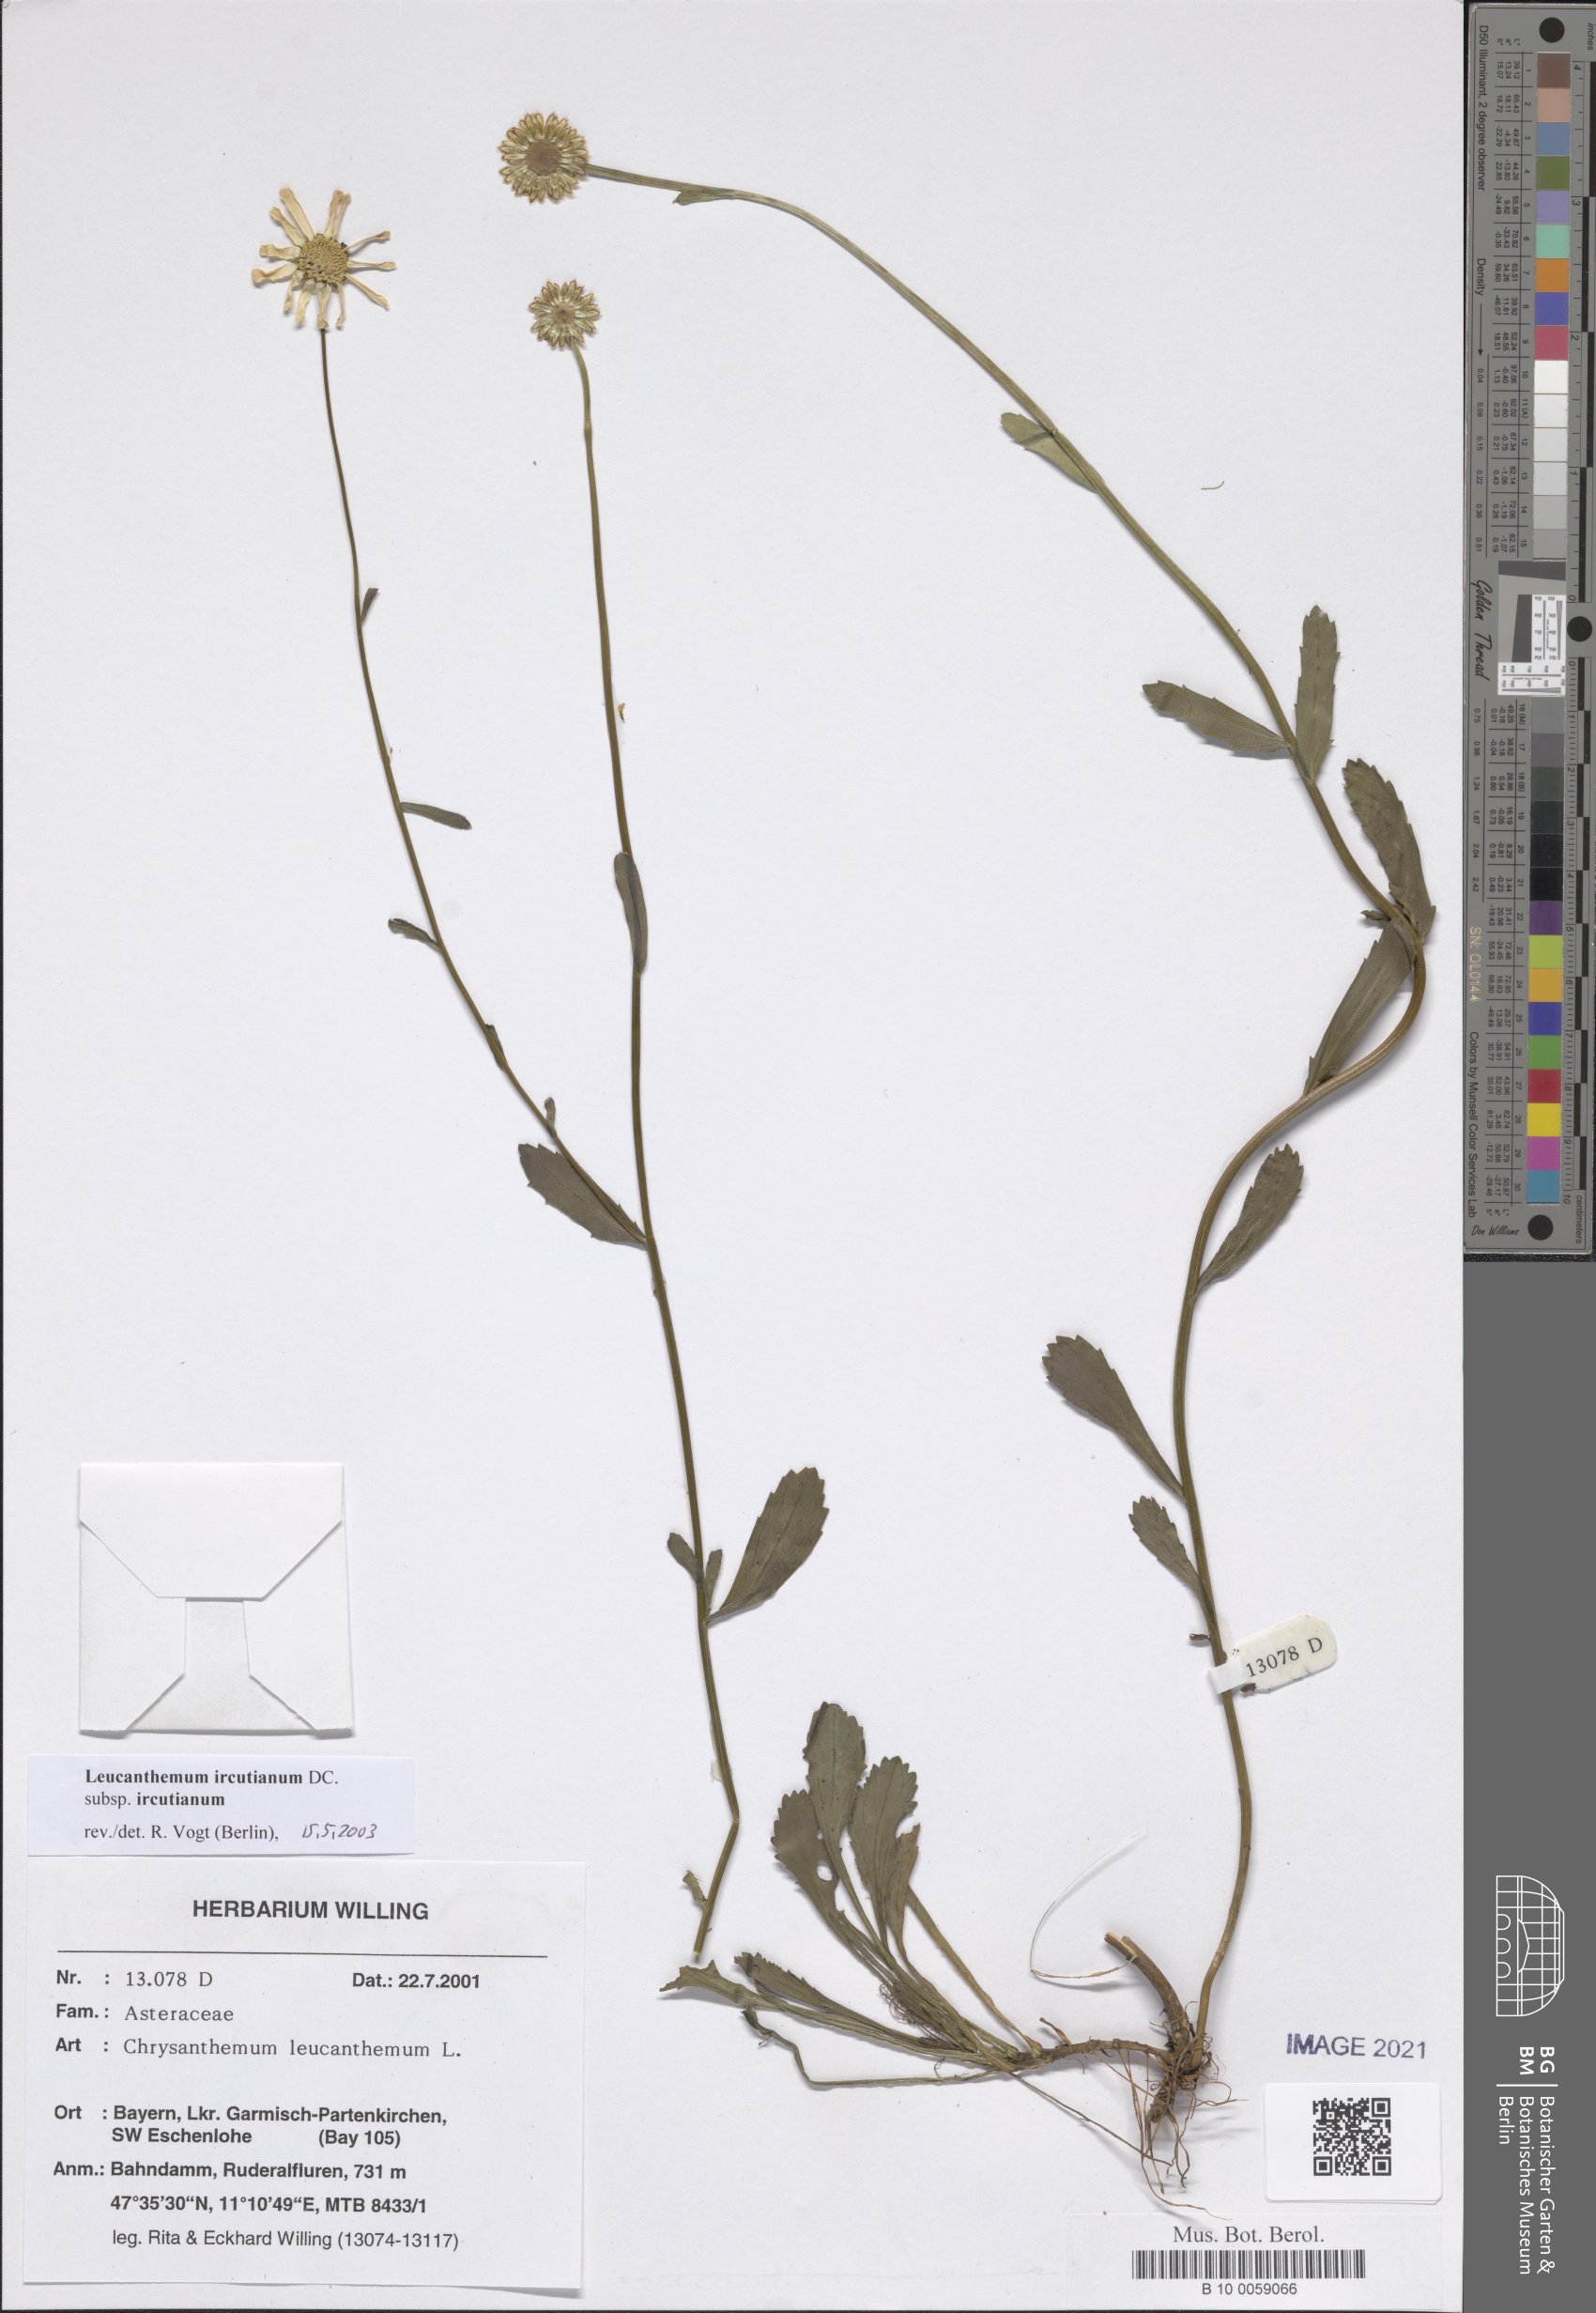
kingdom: Plantae
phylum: Tracheophyta
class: Magnoliopsida
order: Asterales
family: Asteraceae
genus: Leucanthemum
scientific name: Leucanthemum ircutianum
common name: Daisy
